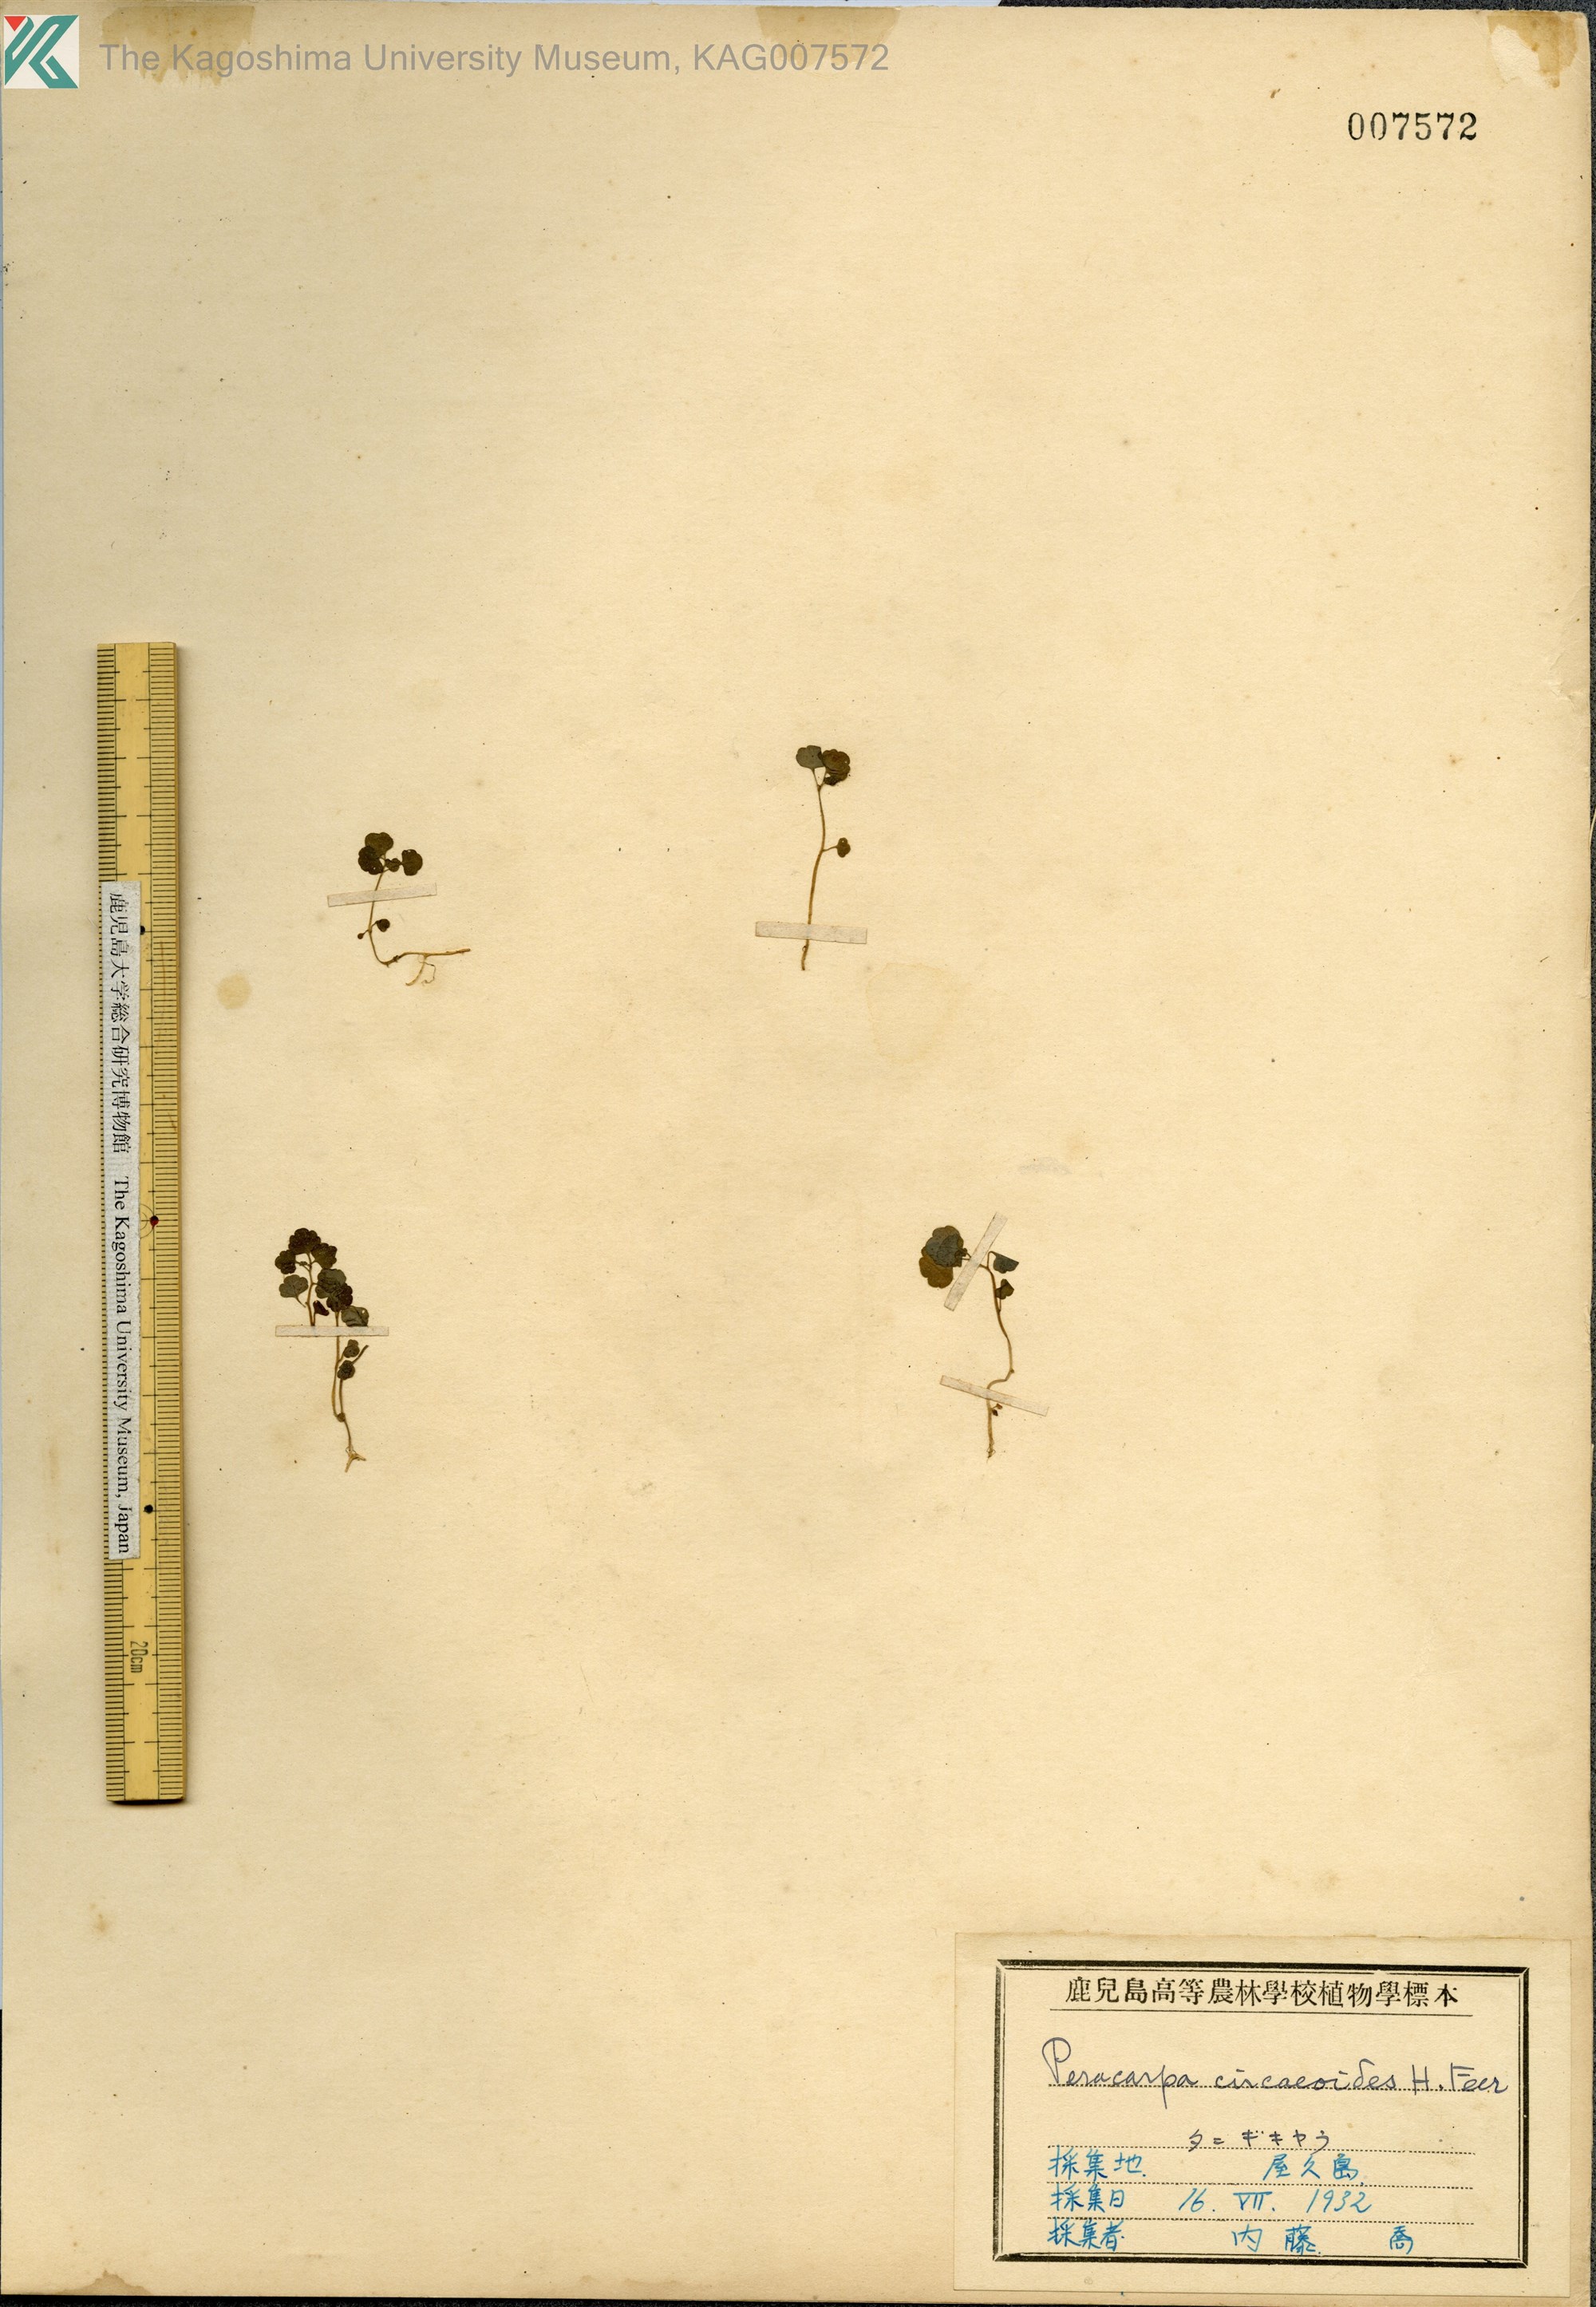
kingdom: Plantae
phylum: Tracheophyta
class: Magnoliopsida
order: Asterales
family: Campanulaceae
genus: Peracarpa
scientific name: Peracarpa carnosa
